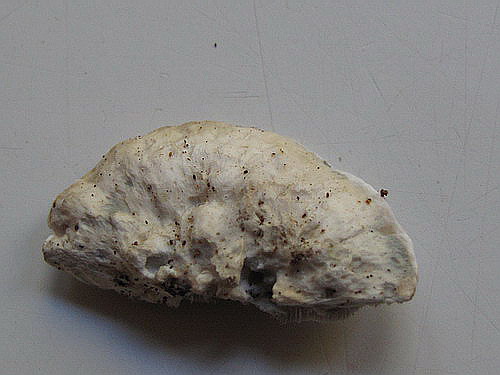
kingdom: Fungi
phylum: Basidiomycota
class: Agaricomycetes
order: Polyporales
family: Polyporaceae
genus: Cyanosporus
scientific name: Cyanosporus alni
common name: blegblå kødporesvamp
